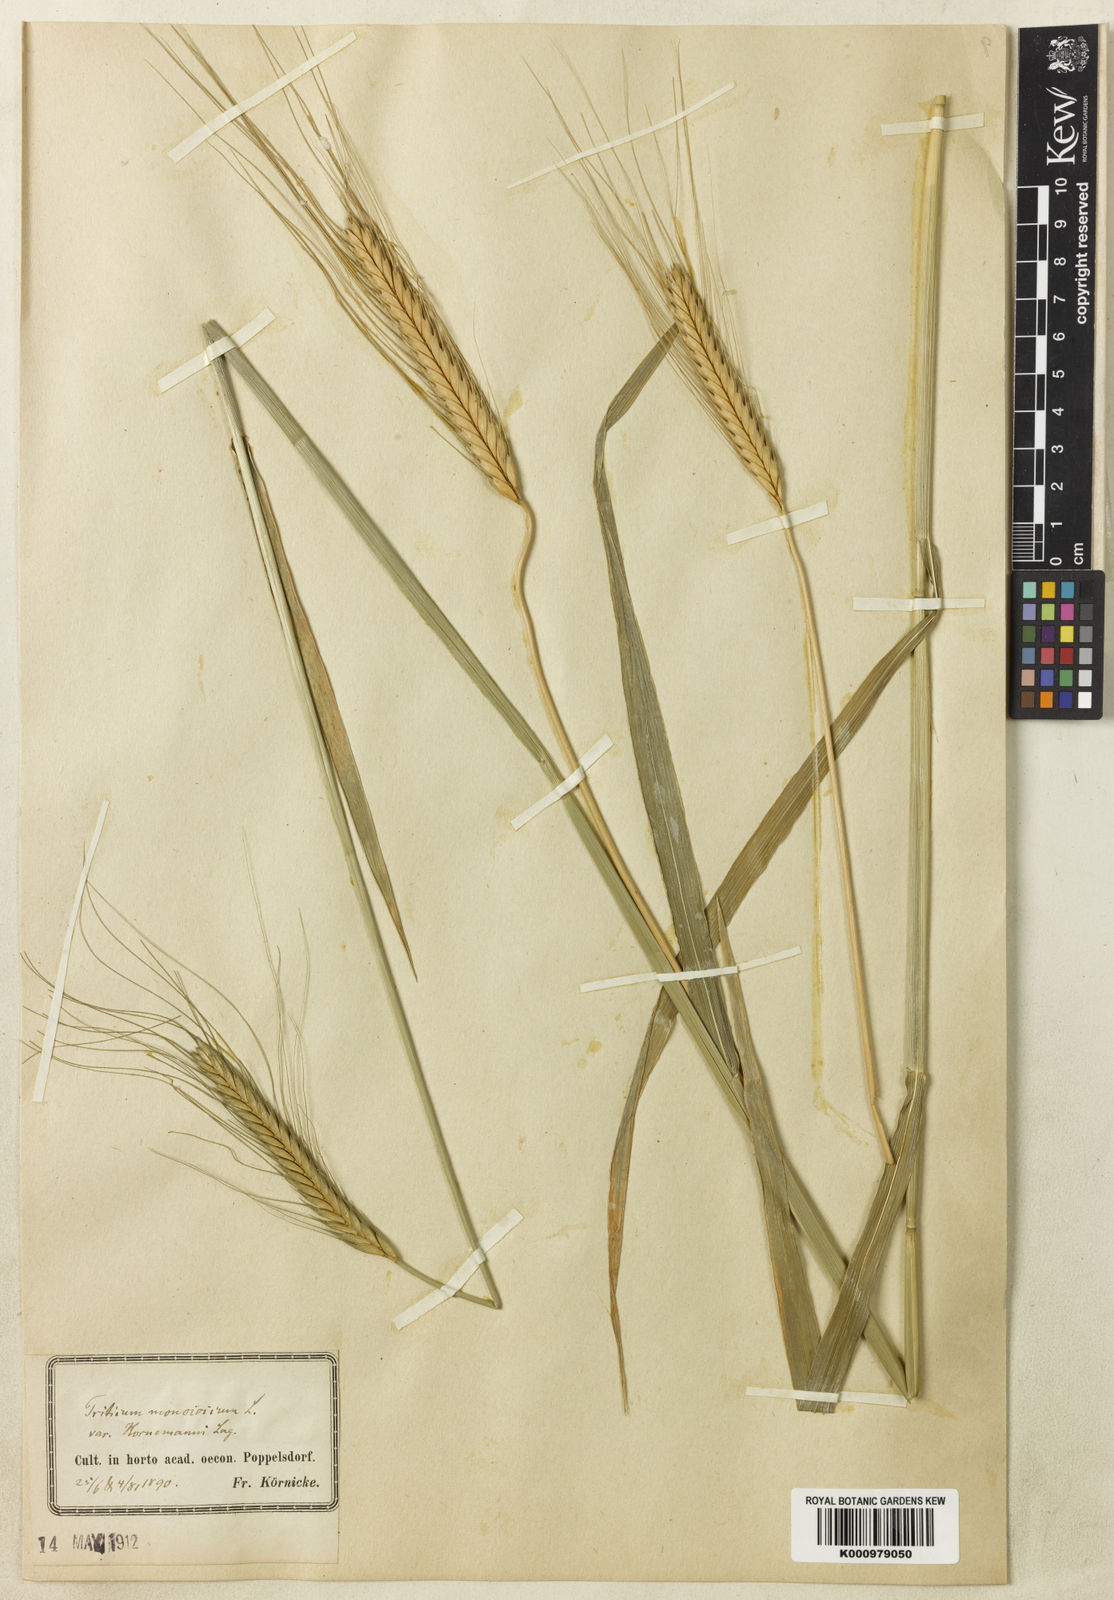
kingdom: Plantae
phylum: Tracheophyta
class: Liliopsida
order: Poales
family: Poaceae
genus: Triticum
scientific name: Triticum monococcum
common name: Einkorn
